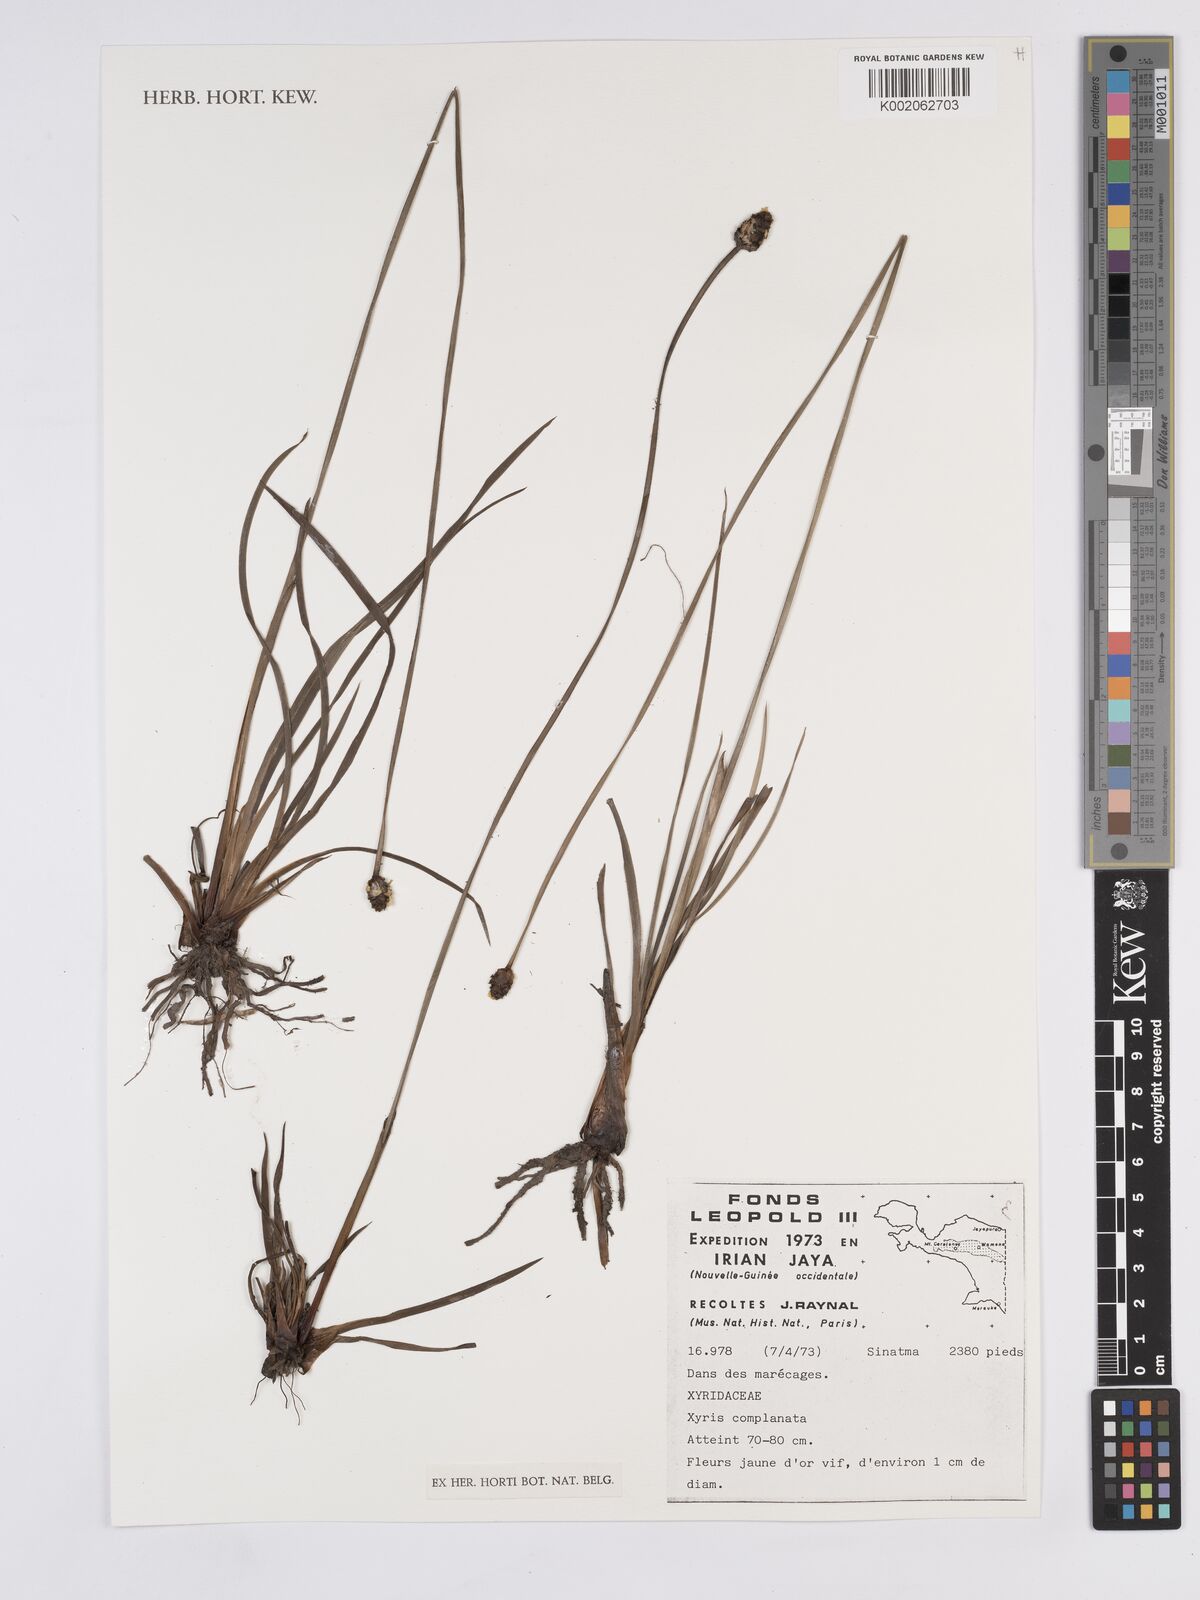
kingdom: Plantae
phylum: Tracheophyta
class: Liliopsida
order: Poales
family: Xyridaceae
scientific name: Xyridaceae
